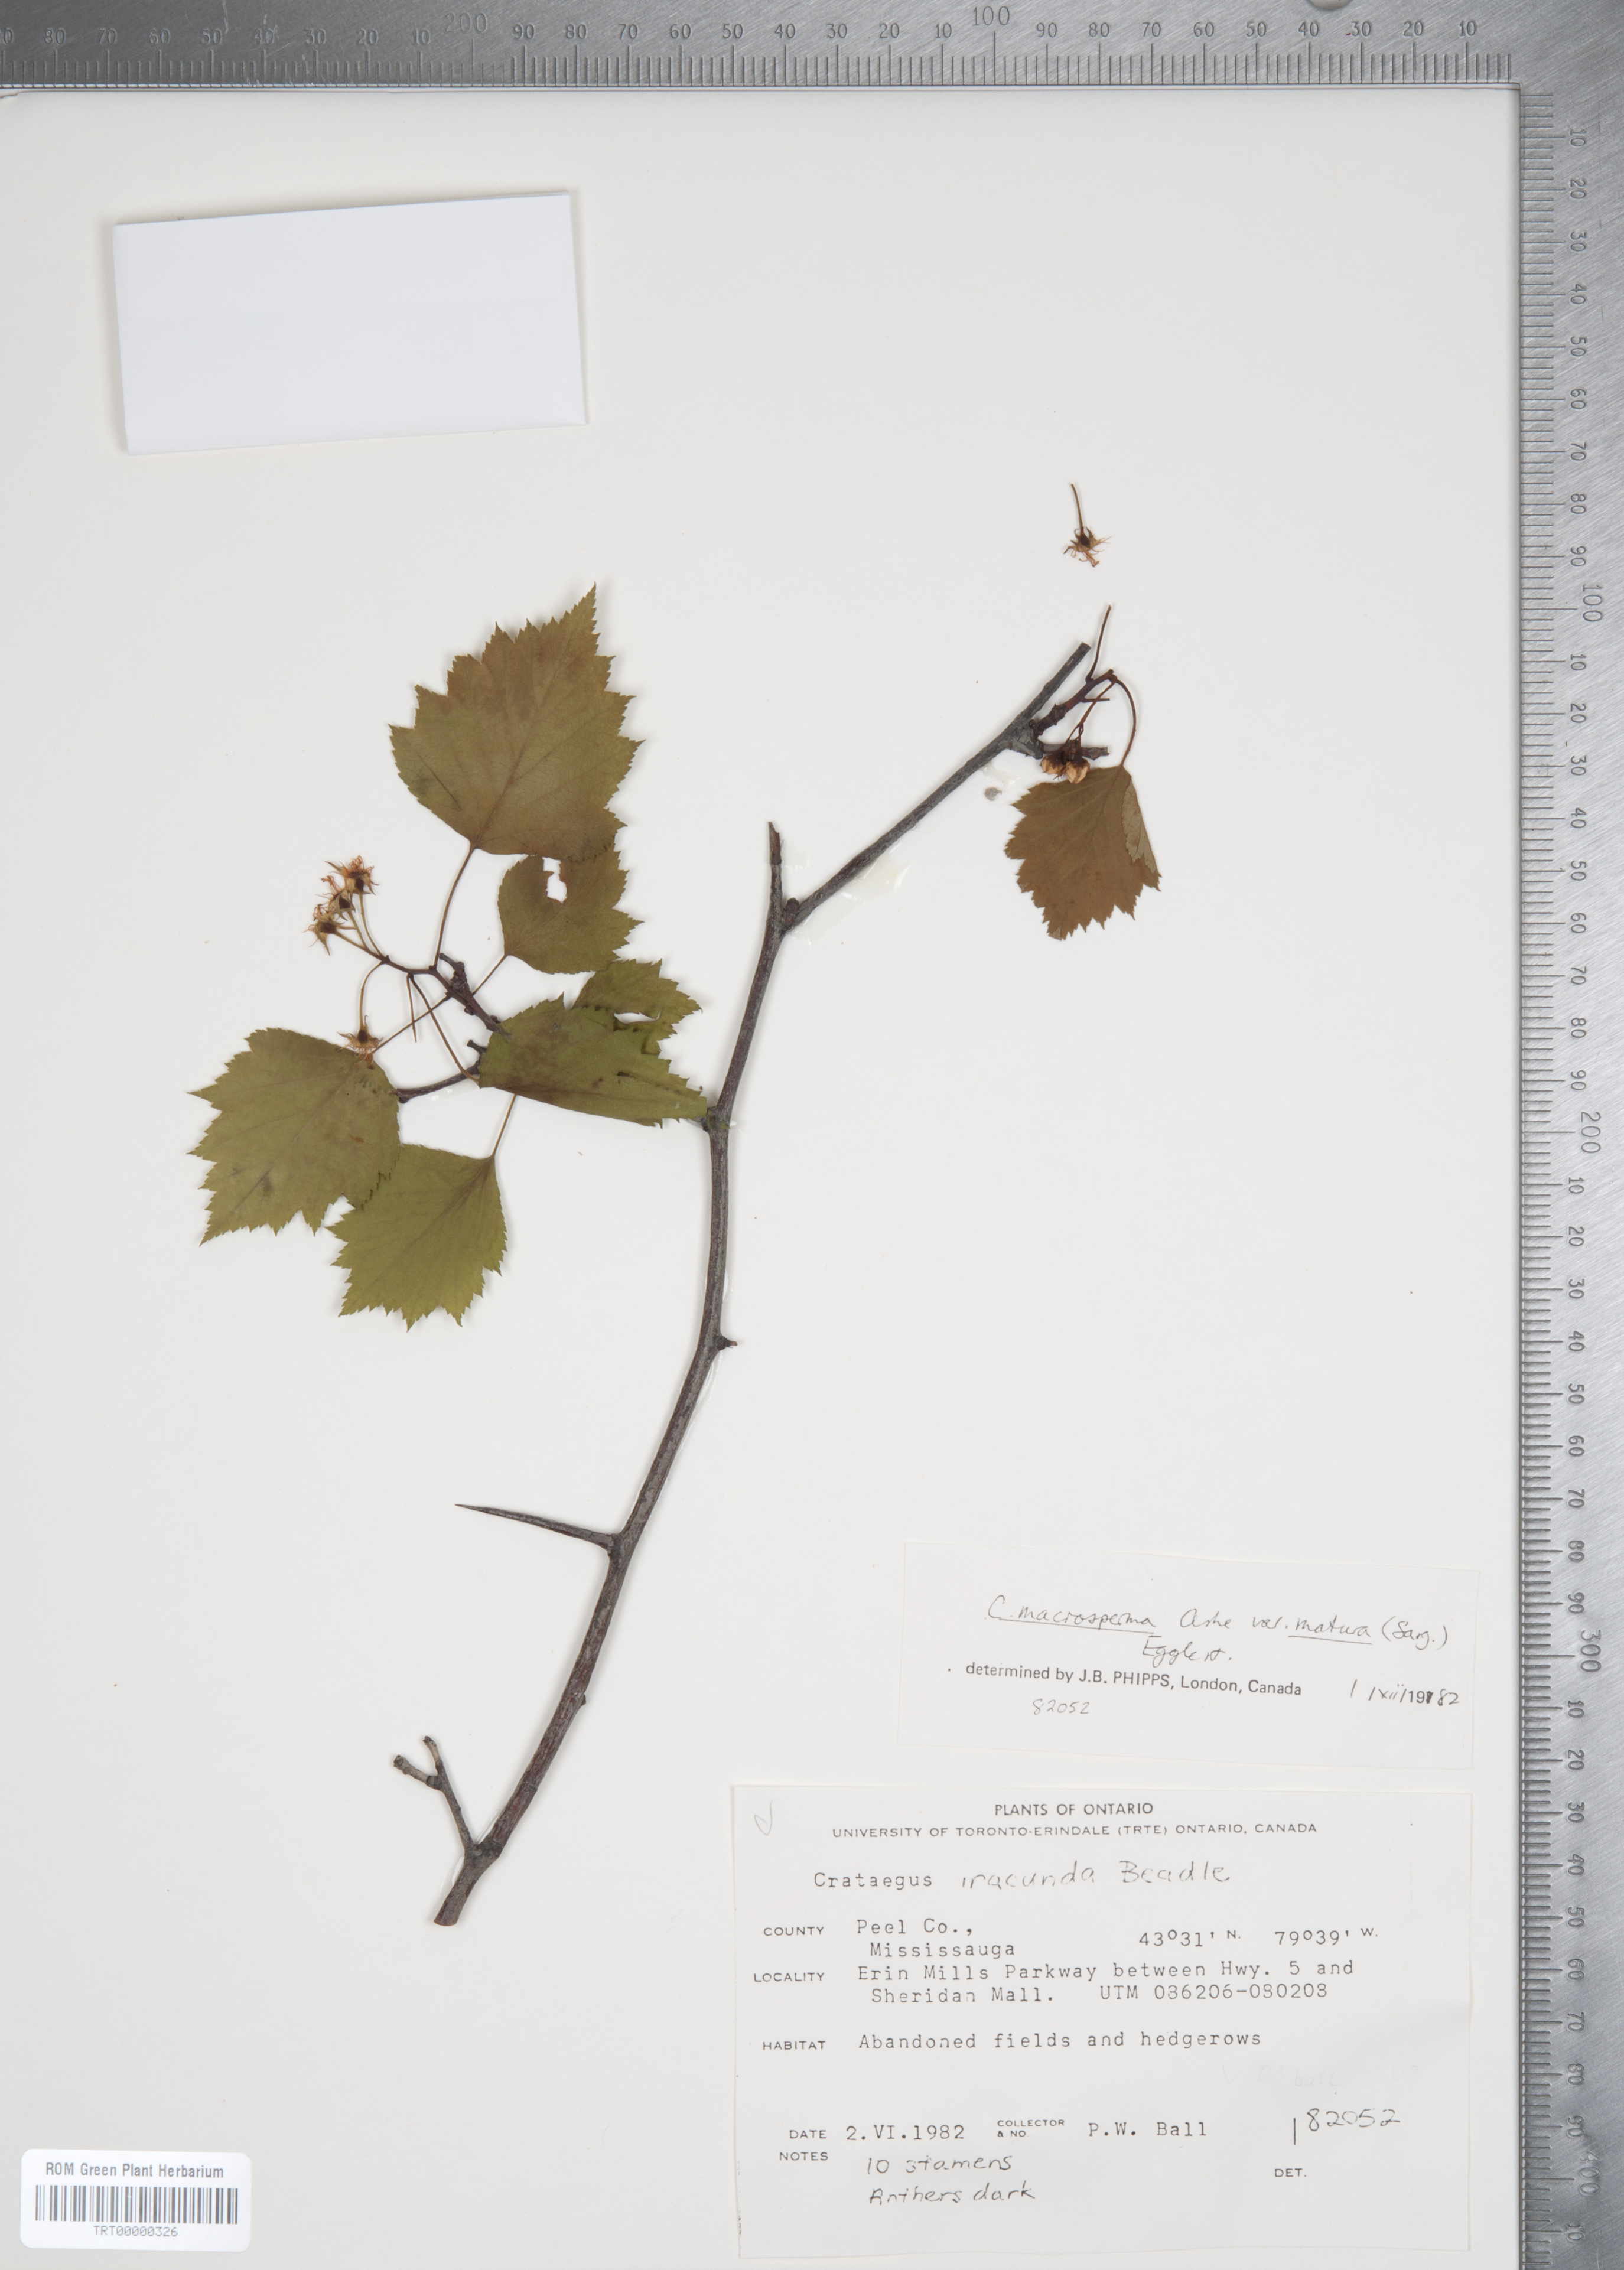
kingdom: Plantae
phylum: Tracheophyta
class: Magnoliopsida
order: Rosales
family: Rosaceae
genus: Crataegus
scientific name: Crataegus macrosperma
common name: Variable hawthorn
